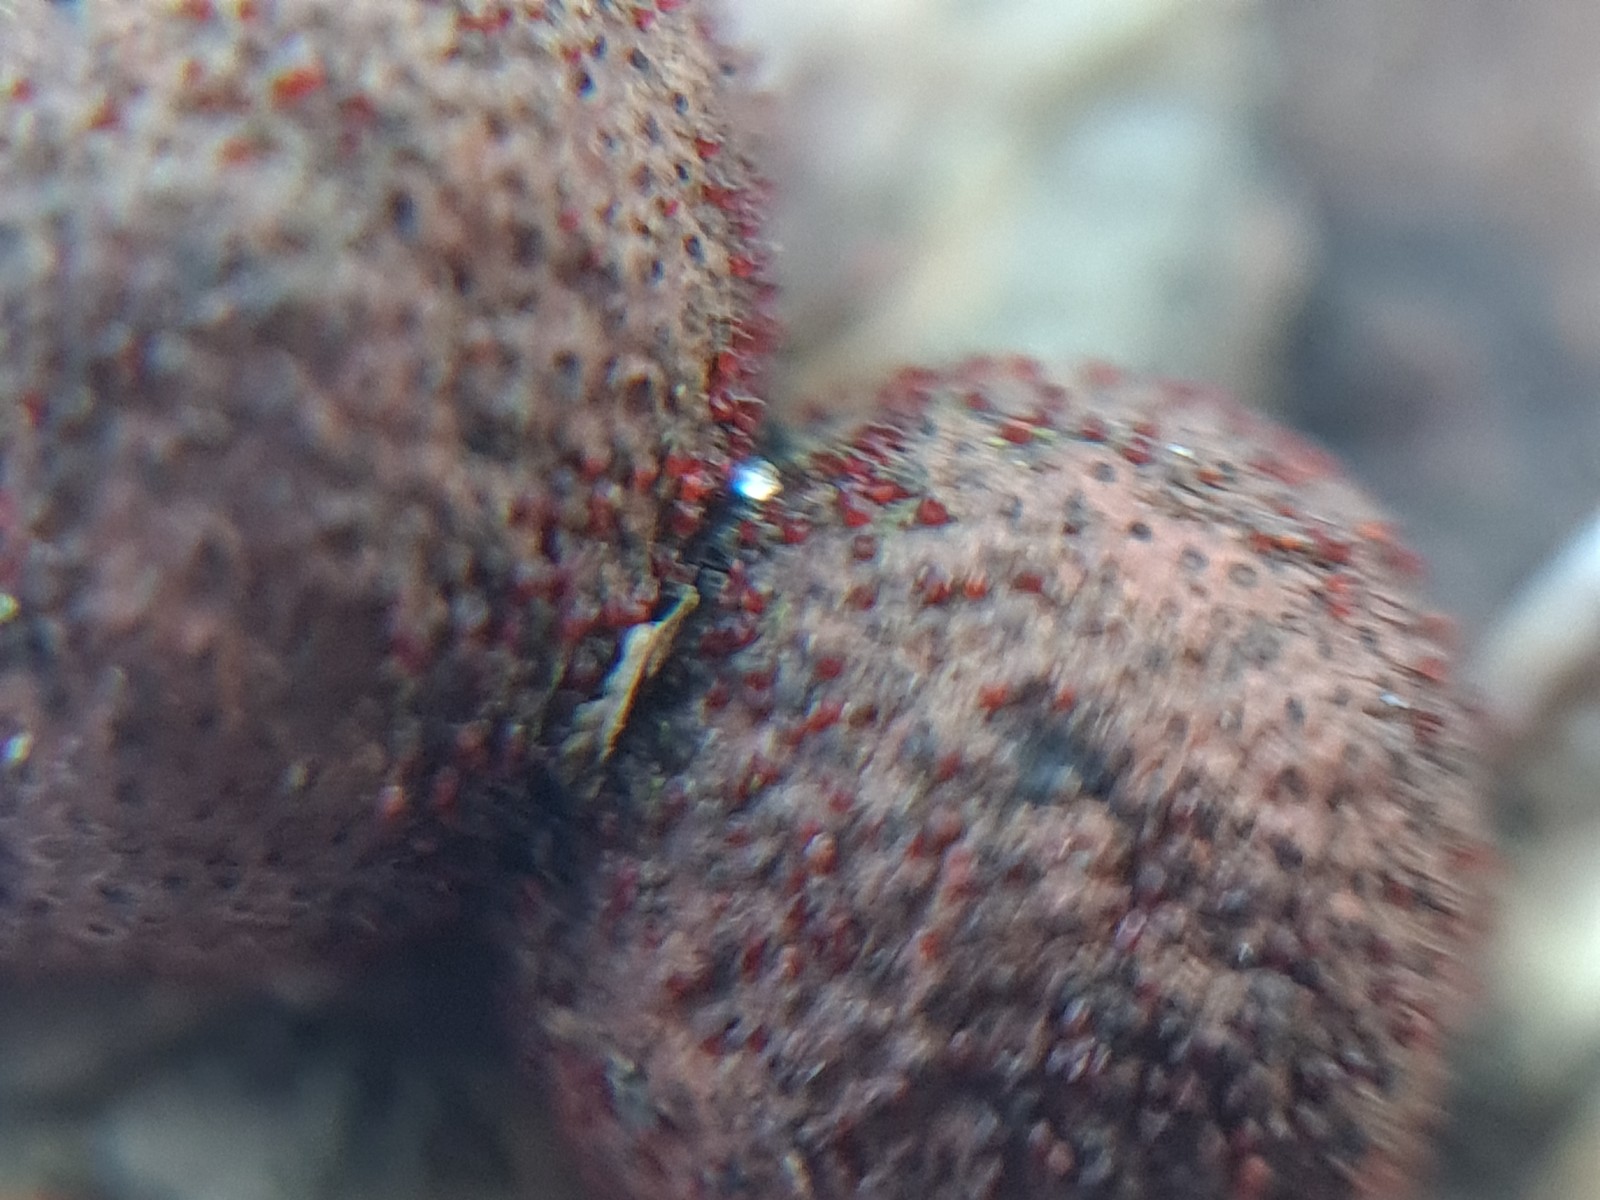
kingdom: Fungi
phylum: Ascomycota
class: Sordariomycetes
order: Hypocreales
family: Nectriaceae
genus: Cosmospora
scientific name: Cosmospora arxii
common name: kuljordbær-cinnobersvamp
